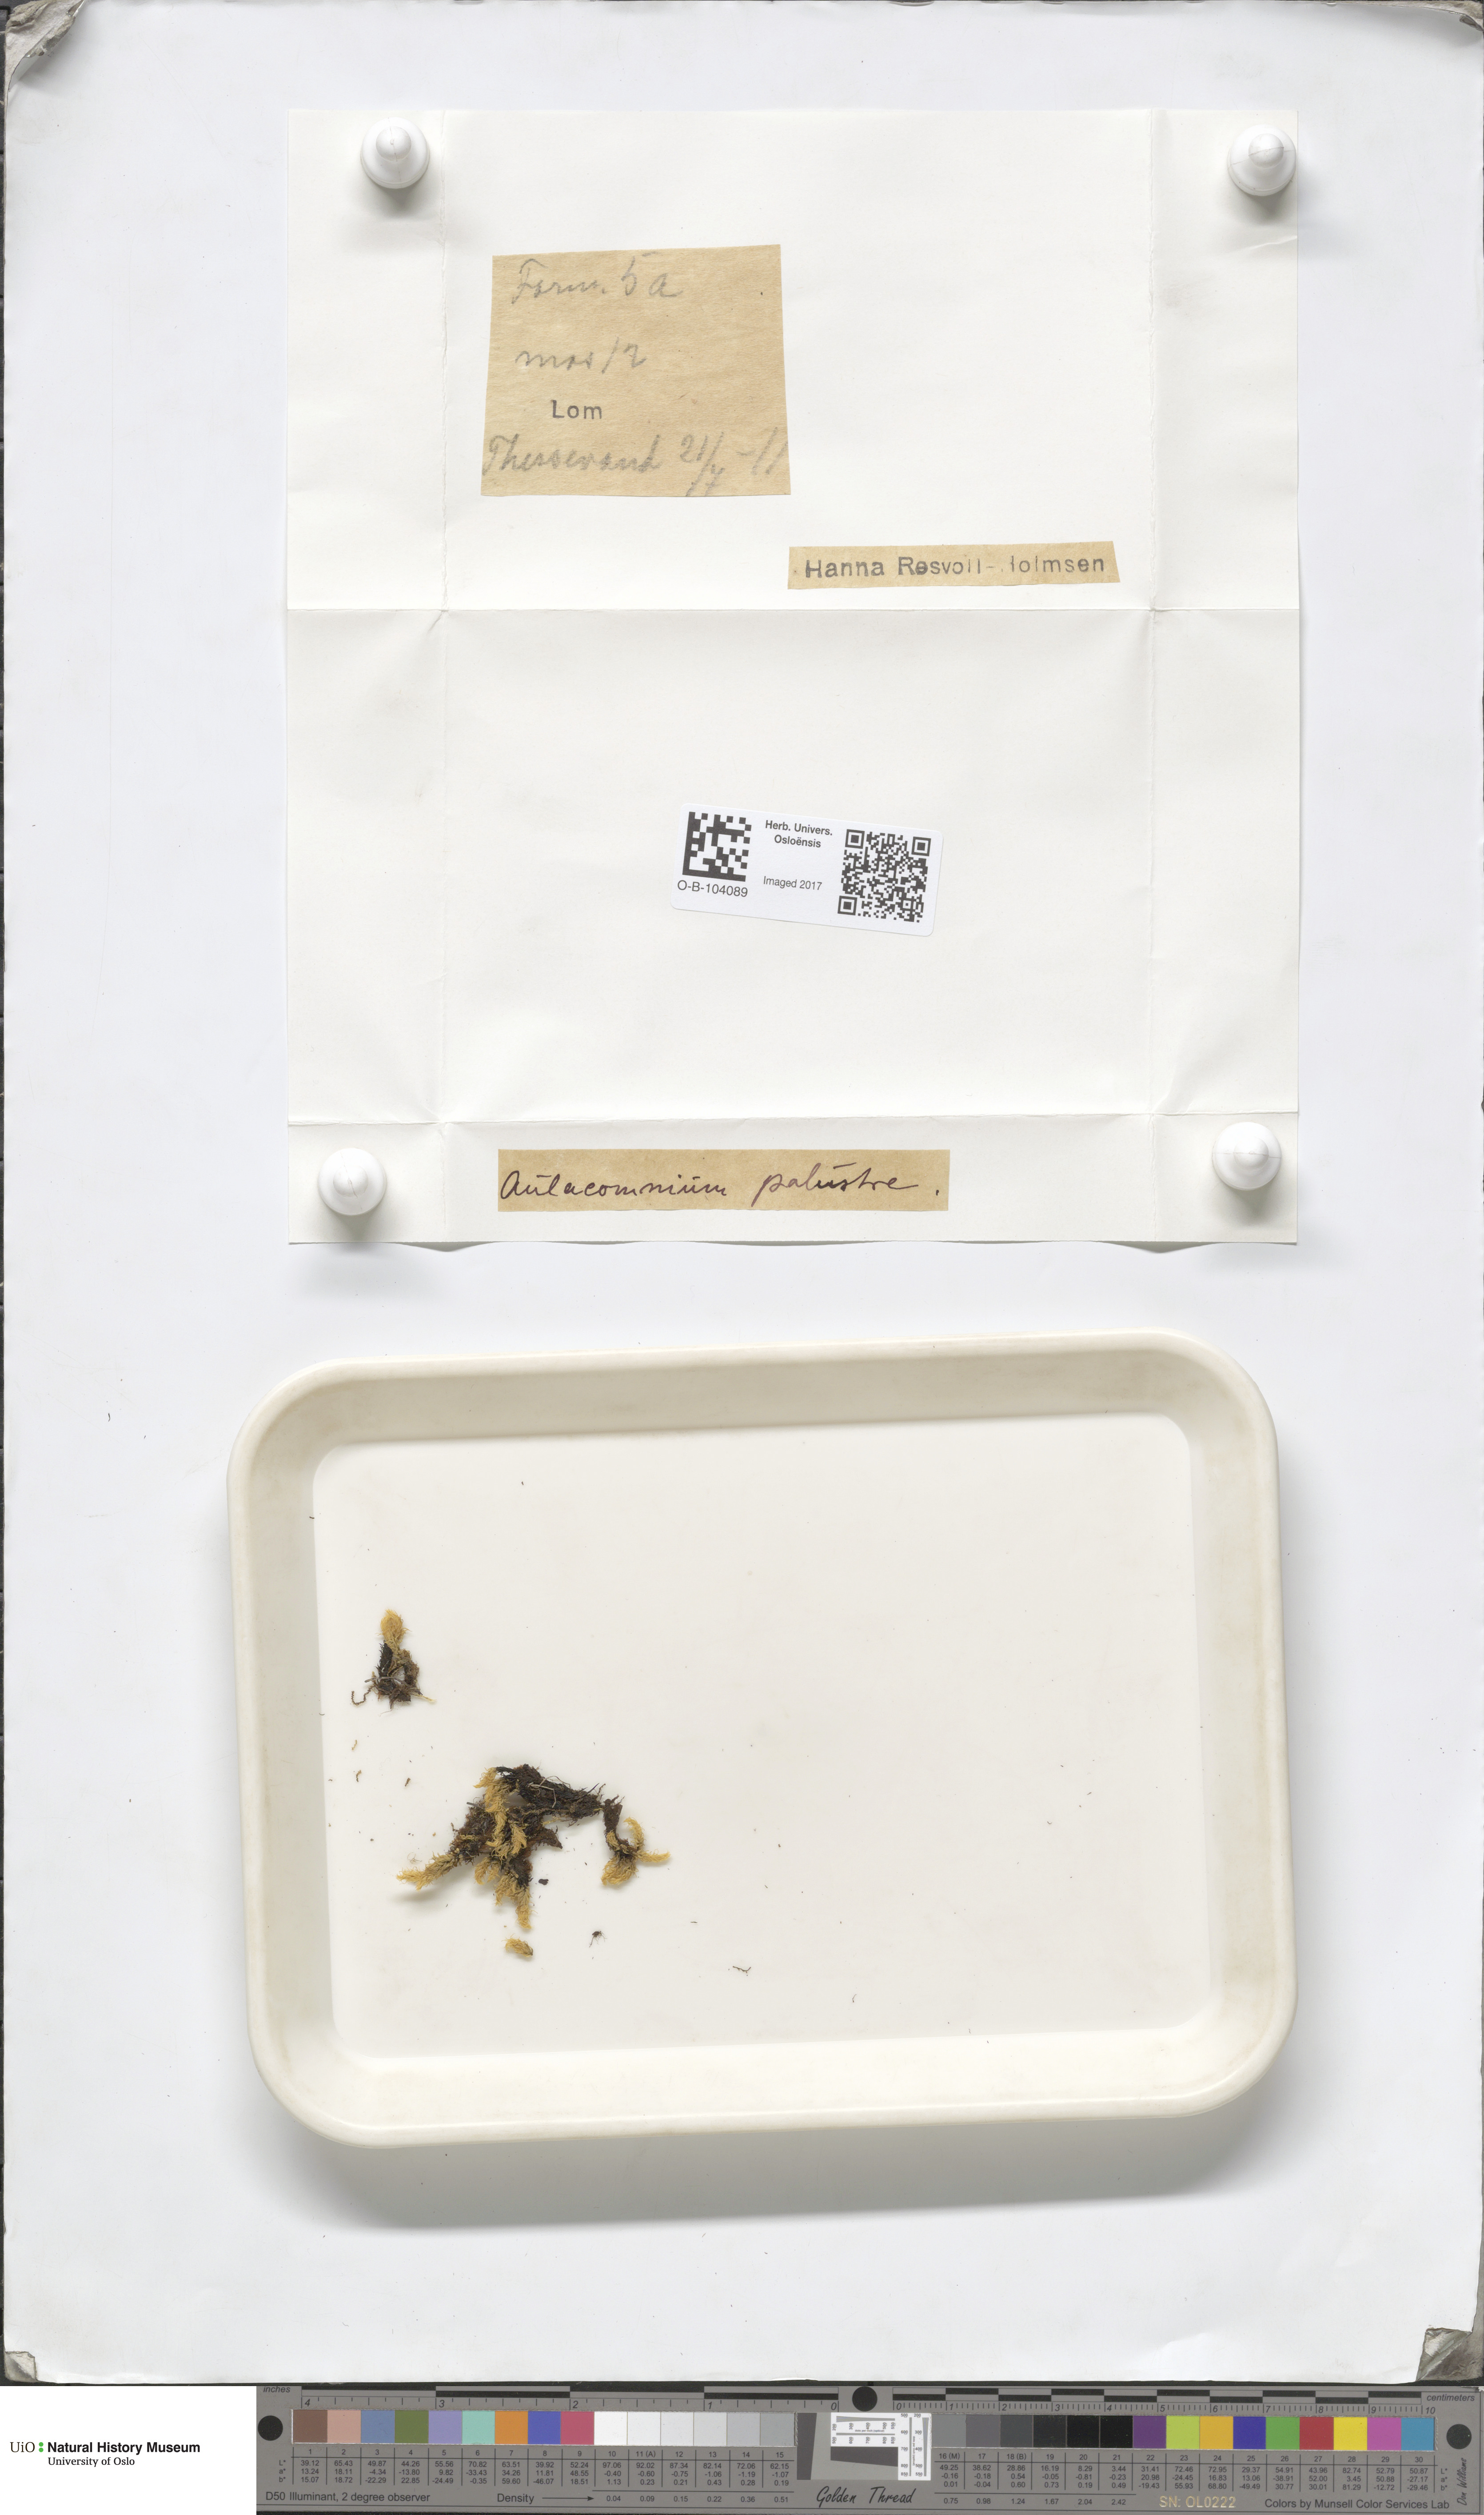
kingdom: Plantae
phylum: Bryophyta
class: Bryopsida
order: Aulacomniales
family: Aulacomniaceae
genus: Aulacomnium
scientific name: Aulacomnium palustre
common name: Bog groove-moss
